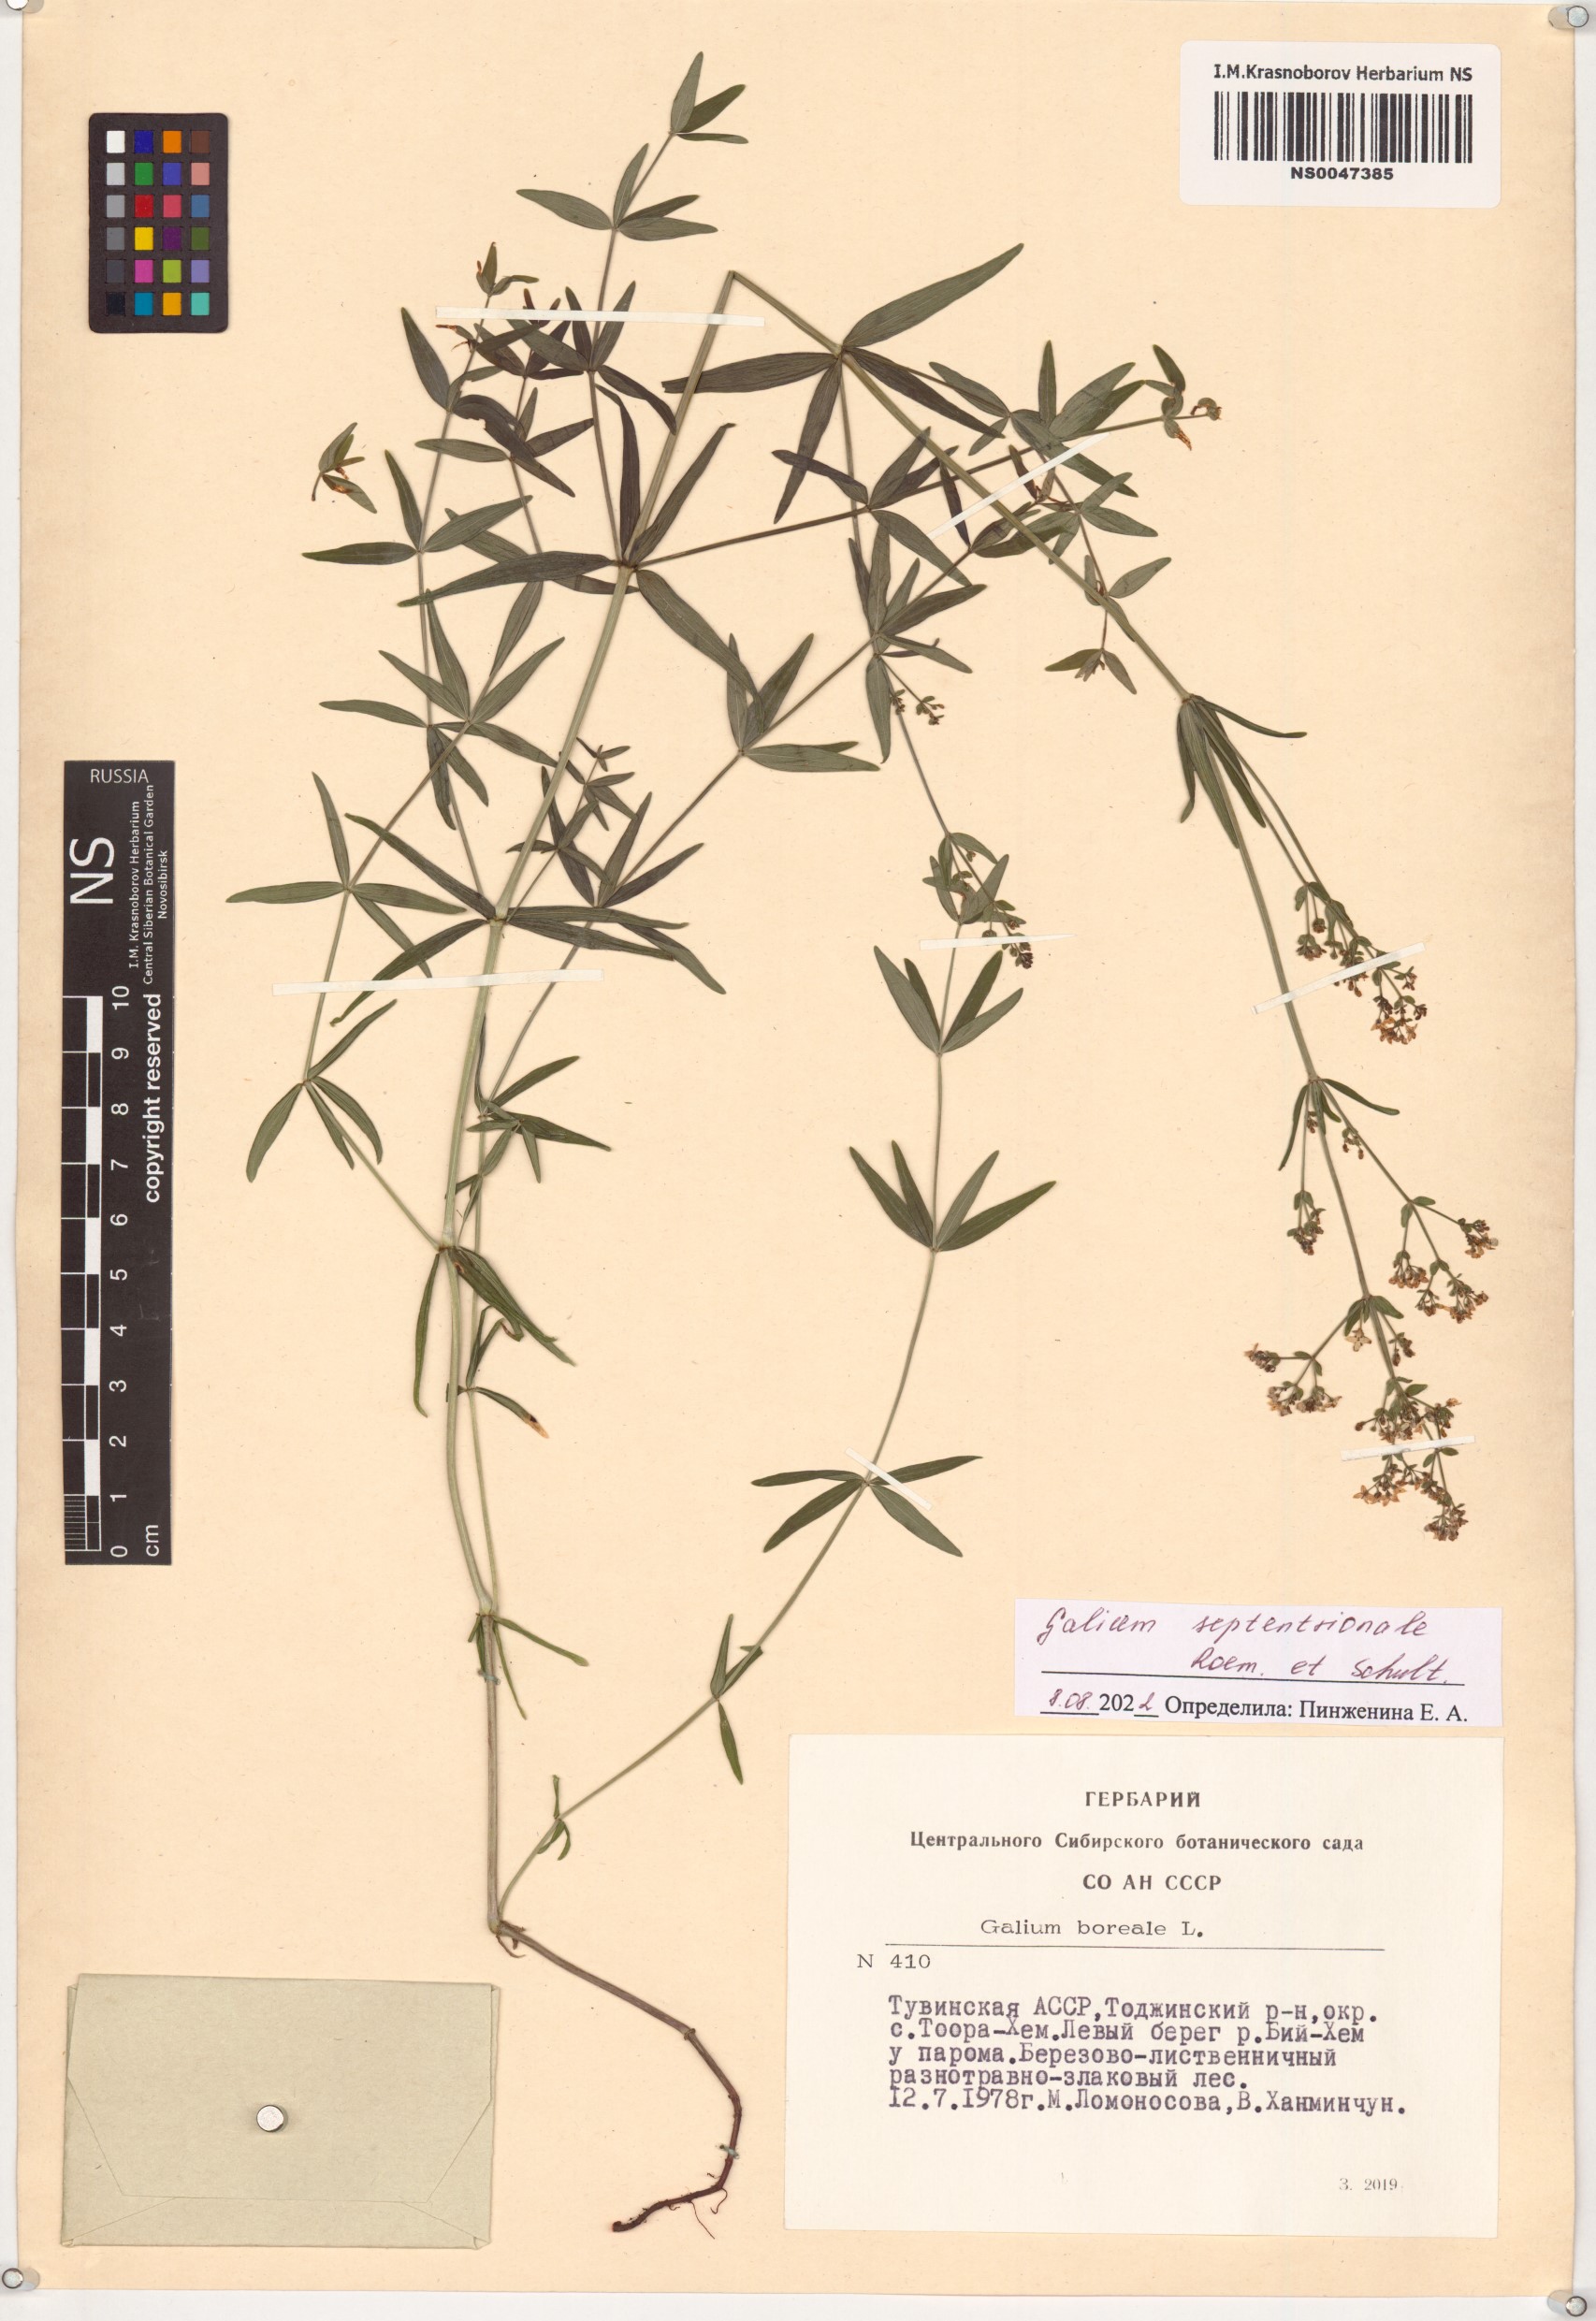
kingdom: Plantae
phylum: Tracheophyta
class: Magnoliopsida
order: Gentianales
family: Rubiaceae
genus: Galium
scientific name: Galium boreale
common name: Northern bedstraw
